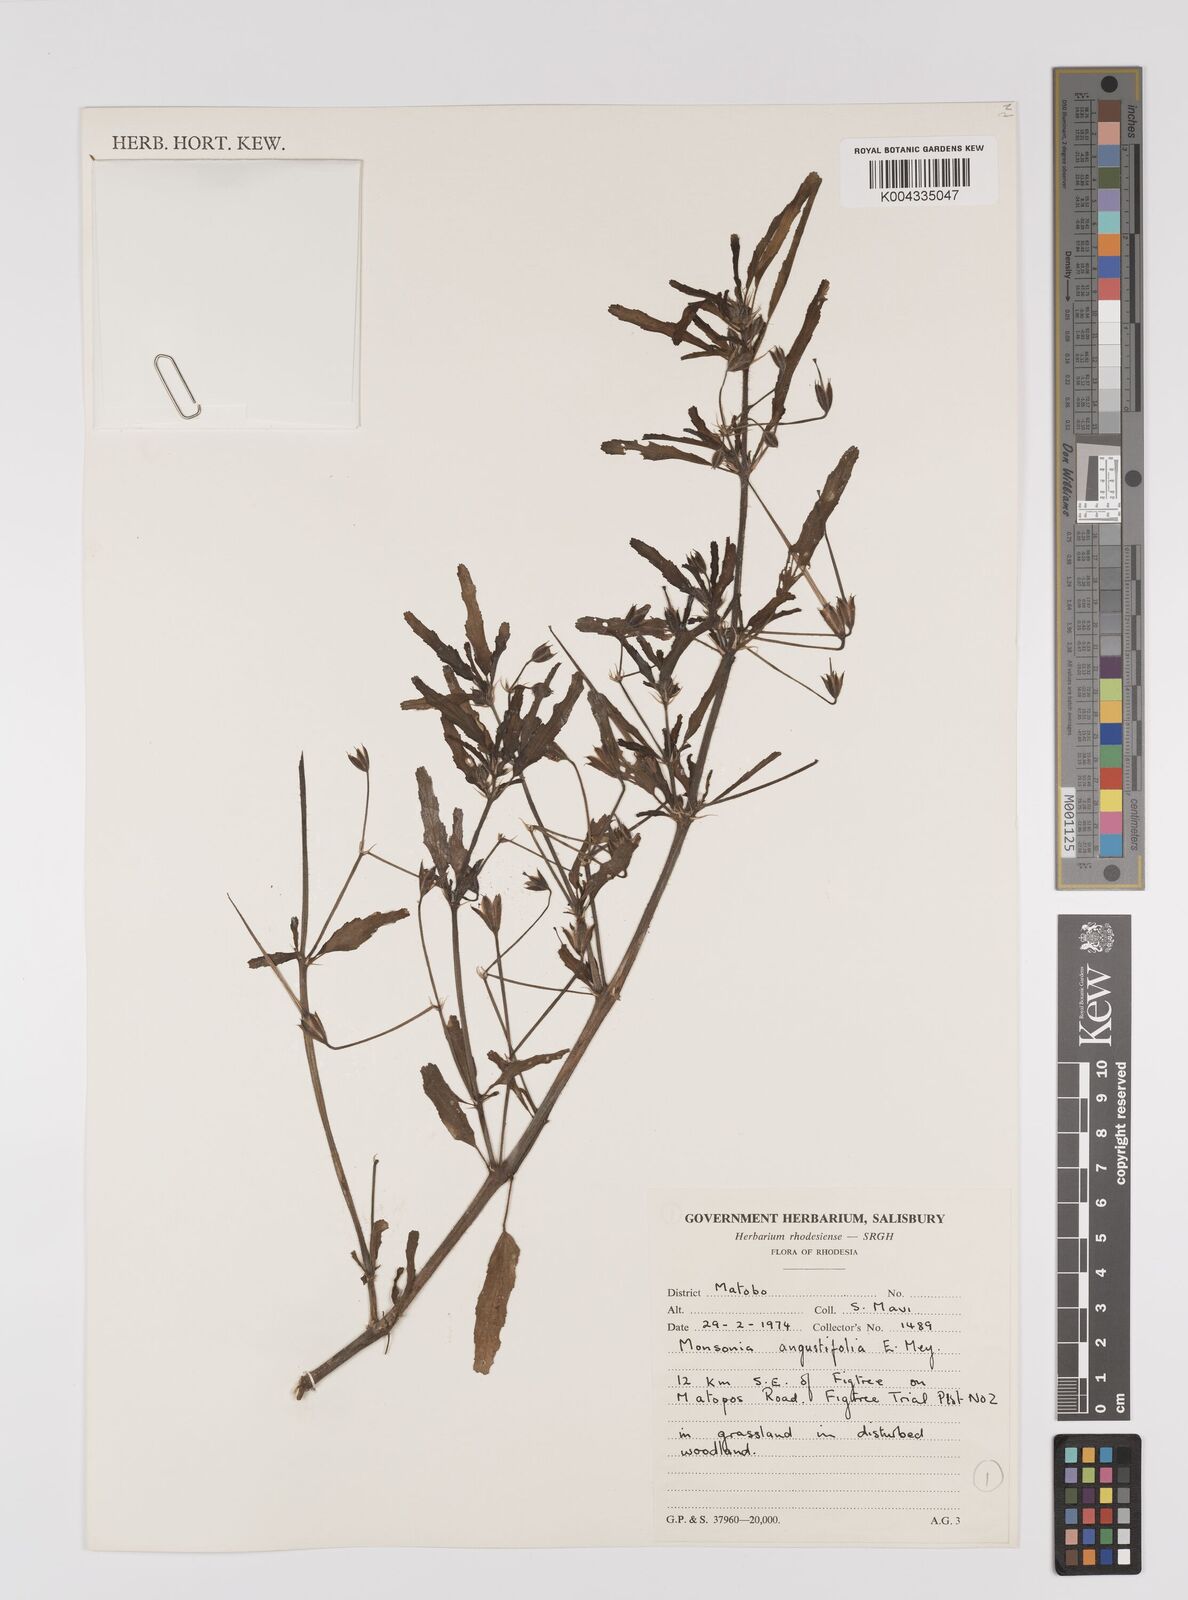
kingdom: Plantae
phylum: Tracheophyta
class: Magnoliopsida
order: Geraniales
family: Geraniaceae
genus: Monsonia
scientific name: Monsonia angustifolia
